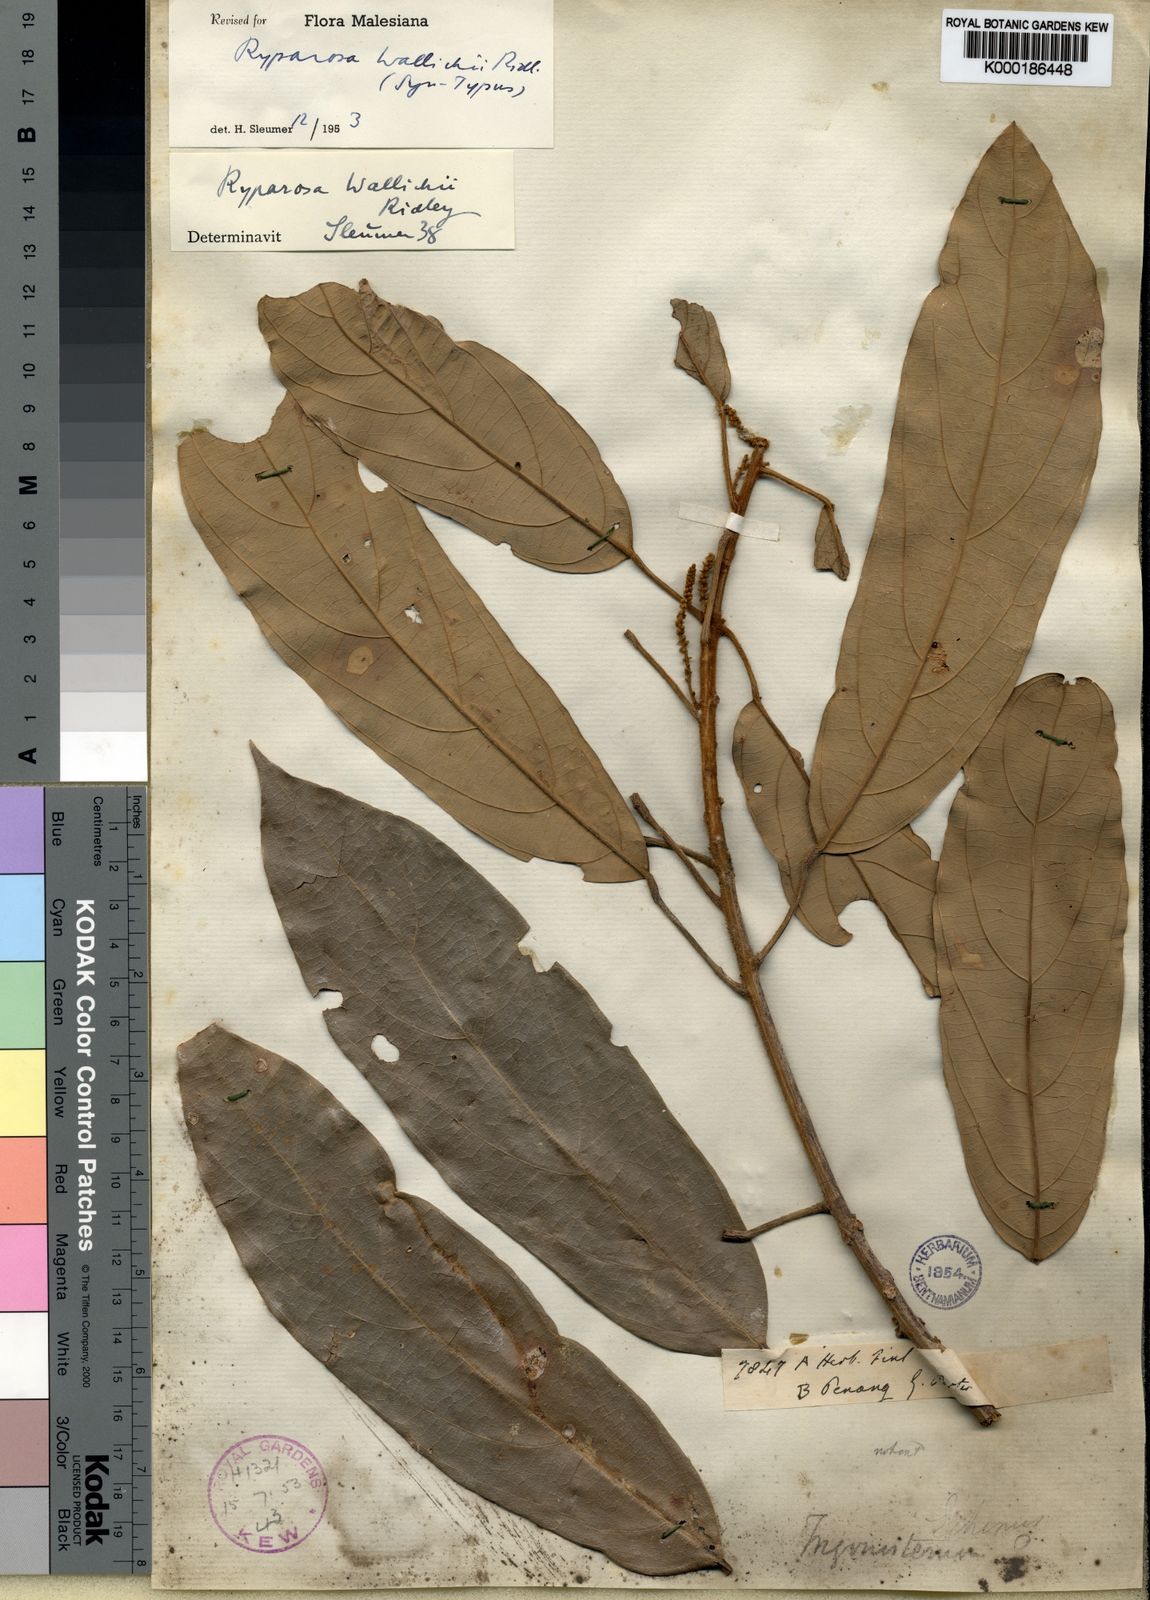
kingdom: Plantae
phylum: Tracheophyta
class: Magnoliopsida
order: Malpighiales
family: Achariaceae
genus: Ryparosa
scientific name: Ryparosa wallichii
